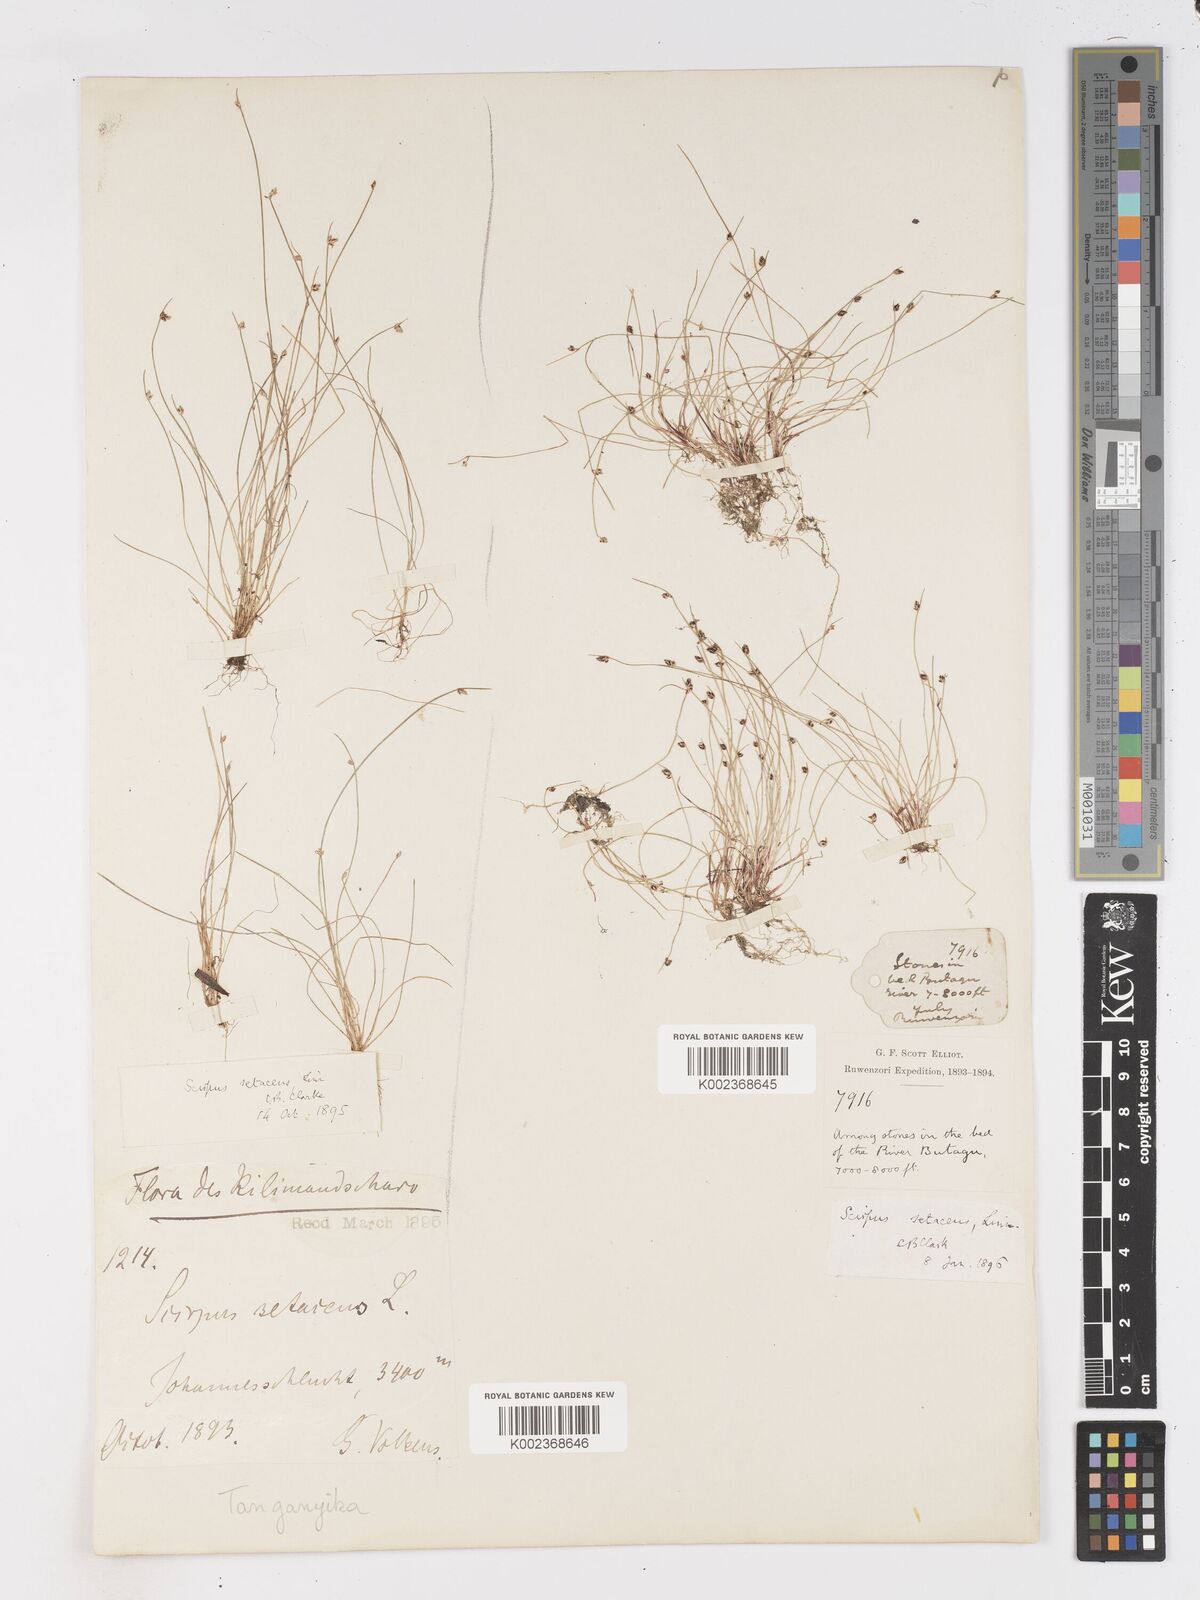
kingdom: Plantae
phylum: Tracheophyta
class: Liliopsida
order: Poales
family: Cyperaceae
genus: Isolepis
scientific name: Isolepis setacea
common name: Bristle club-rush
